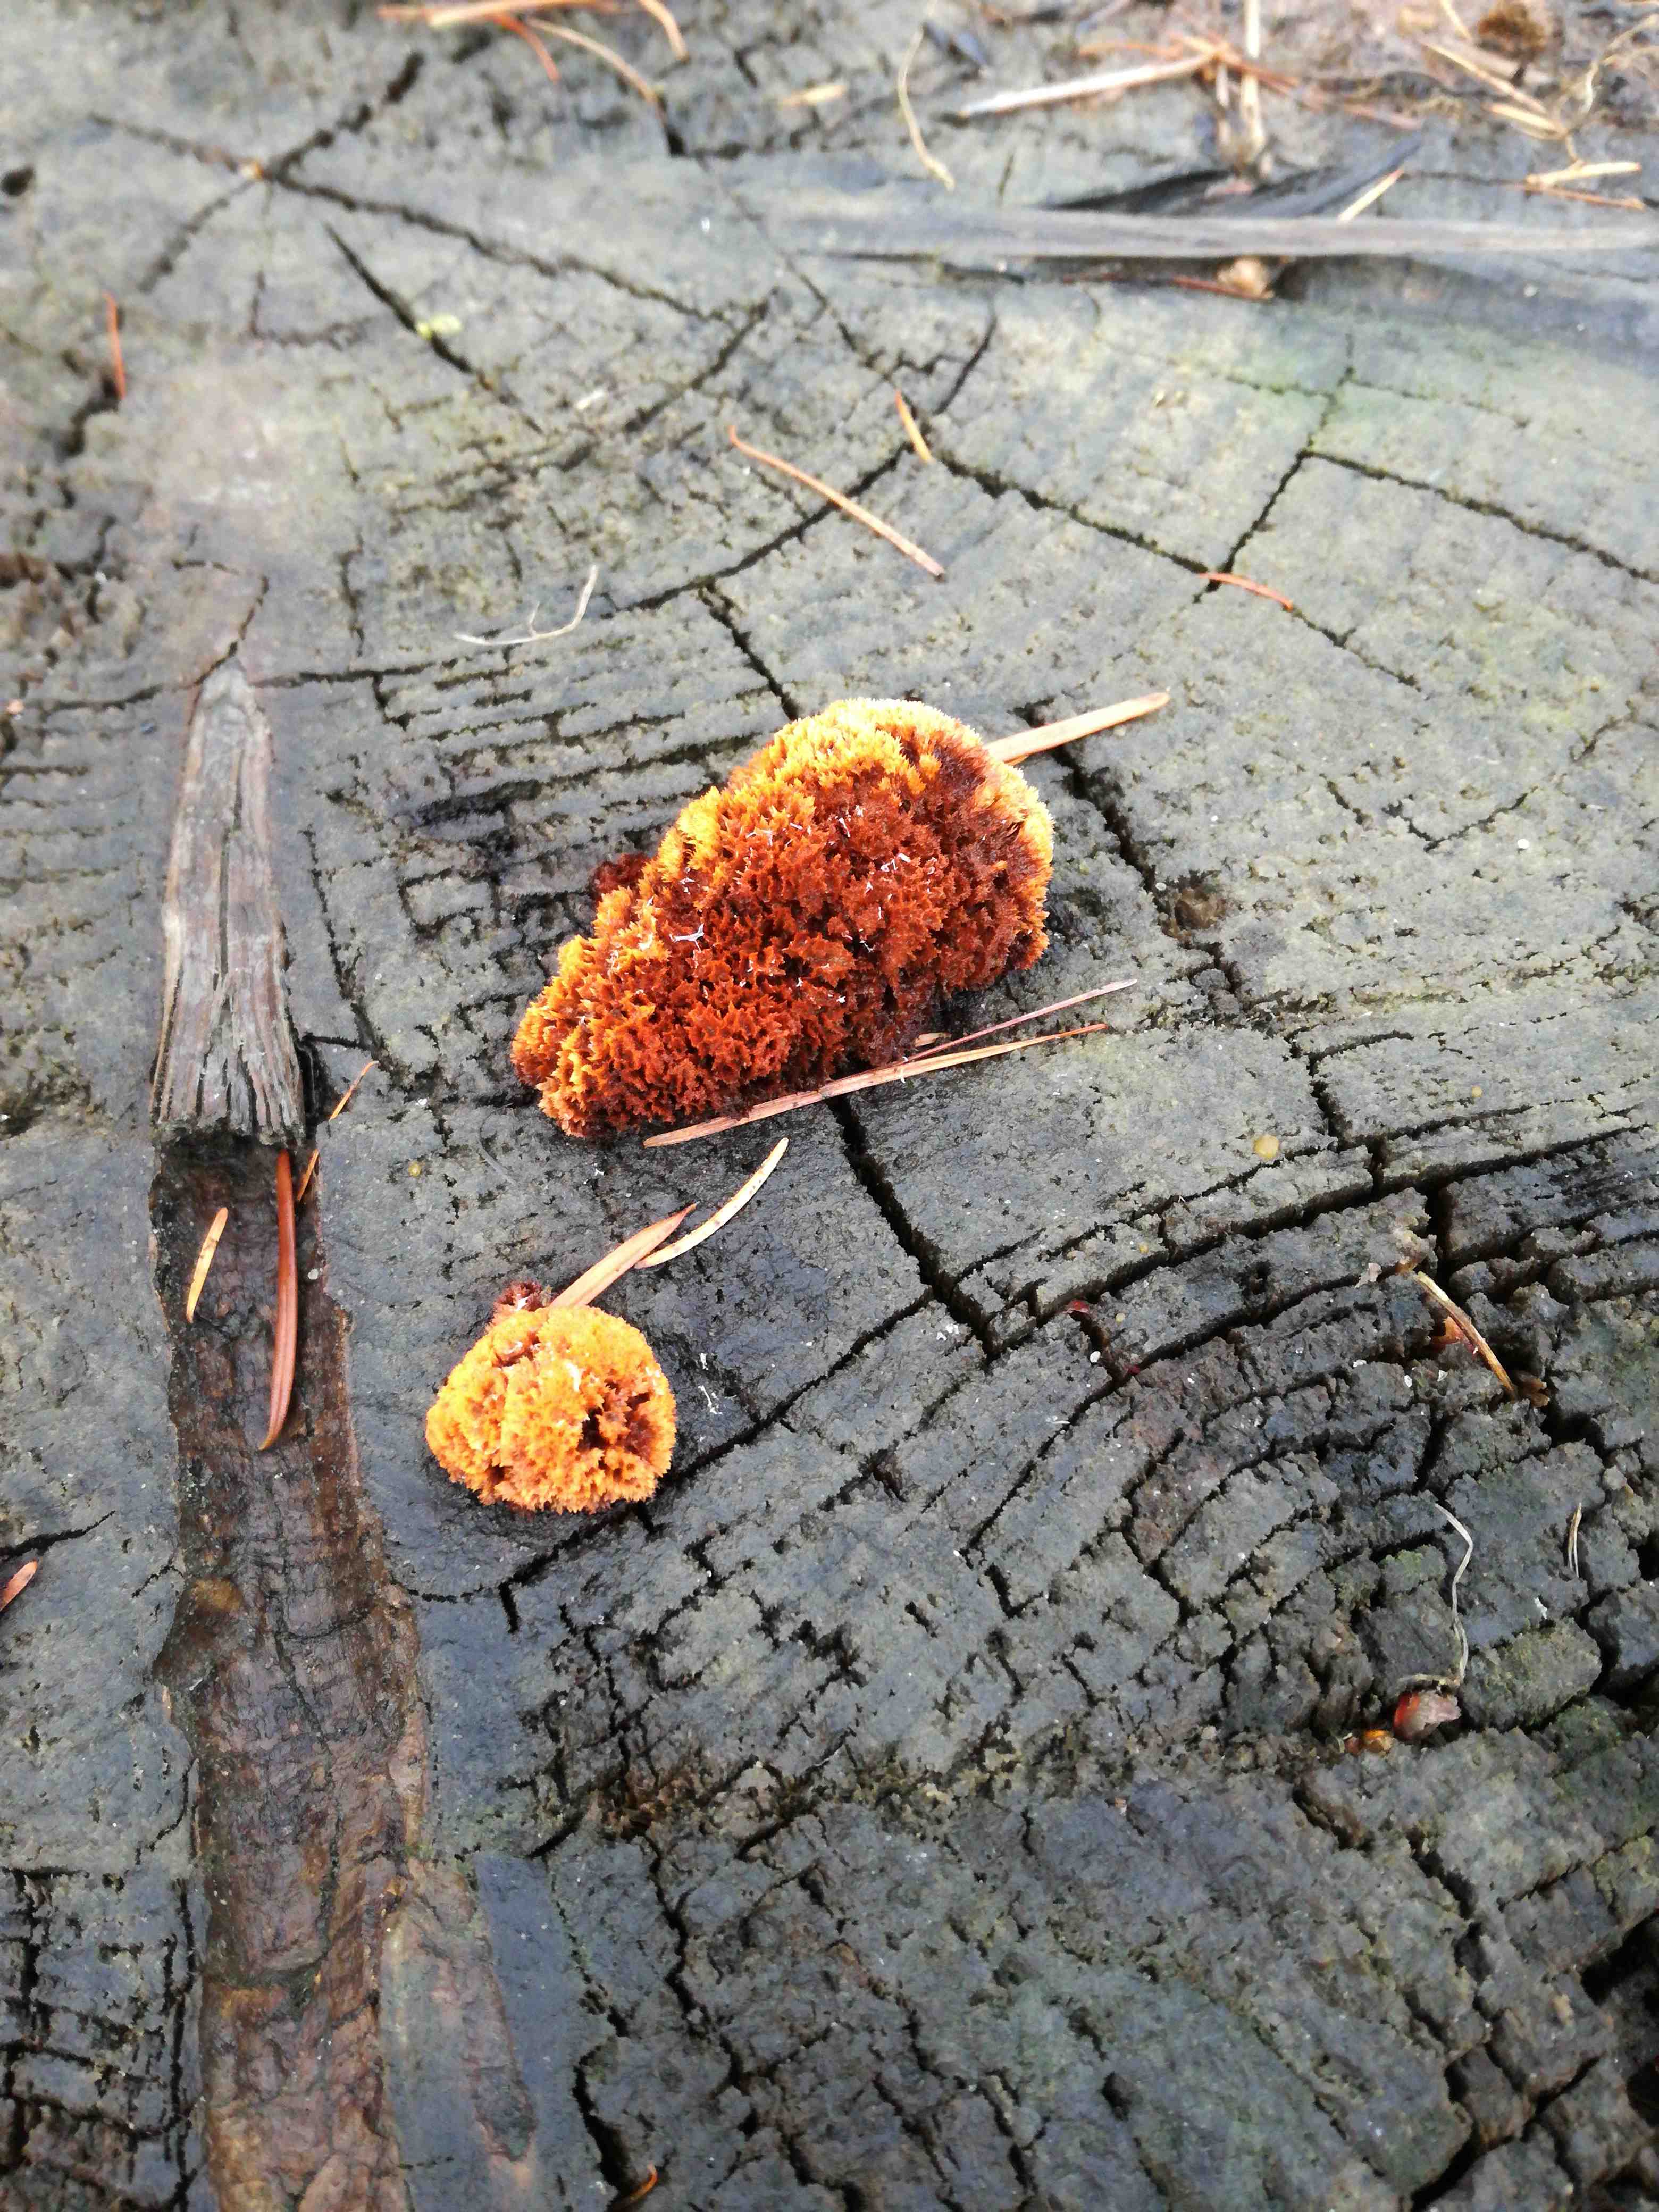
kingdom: Fungi
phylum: Basidiomycota
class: Agaricomycetes
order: Gloeophyllales
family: Gloeophyllaceae
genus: Gloeophyllum
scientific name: Gloeophyllum
